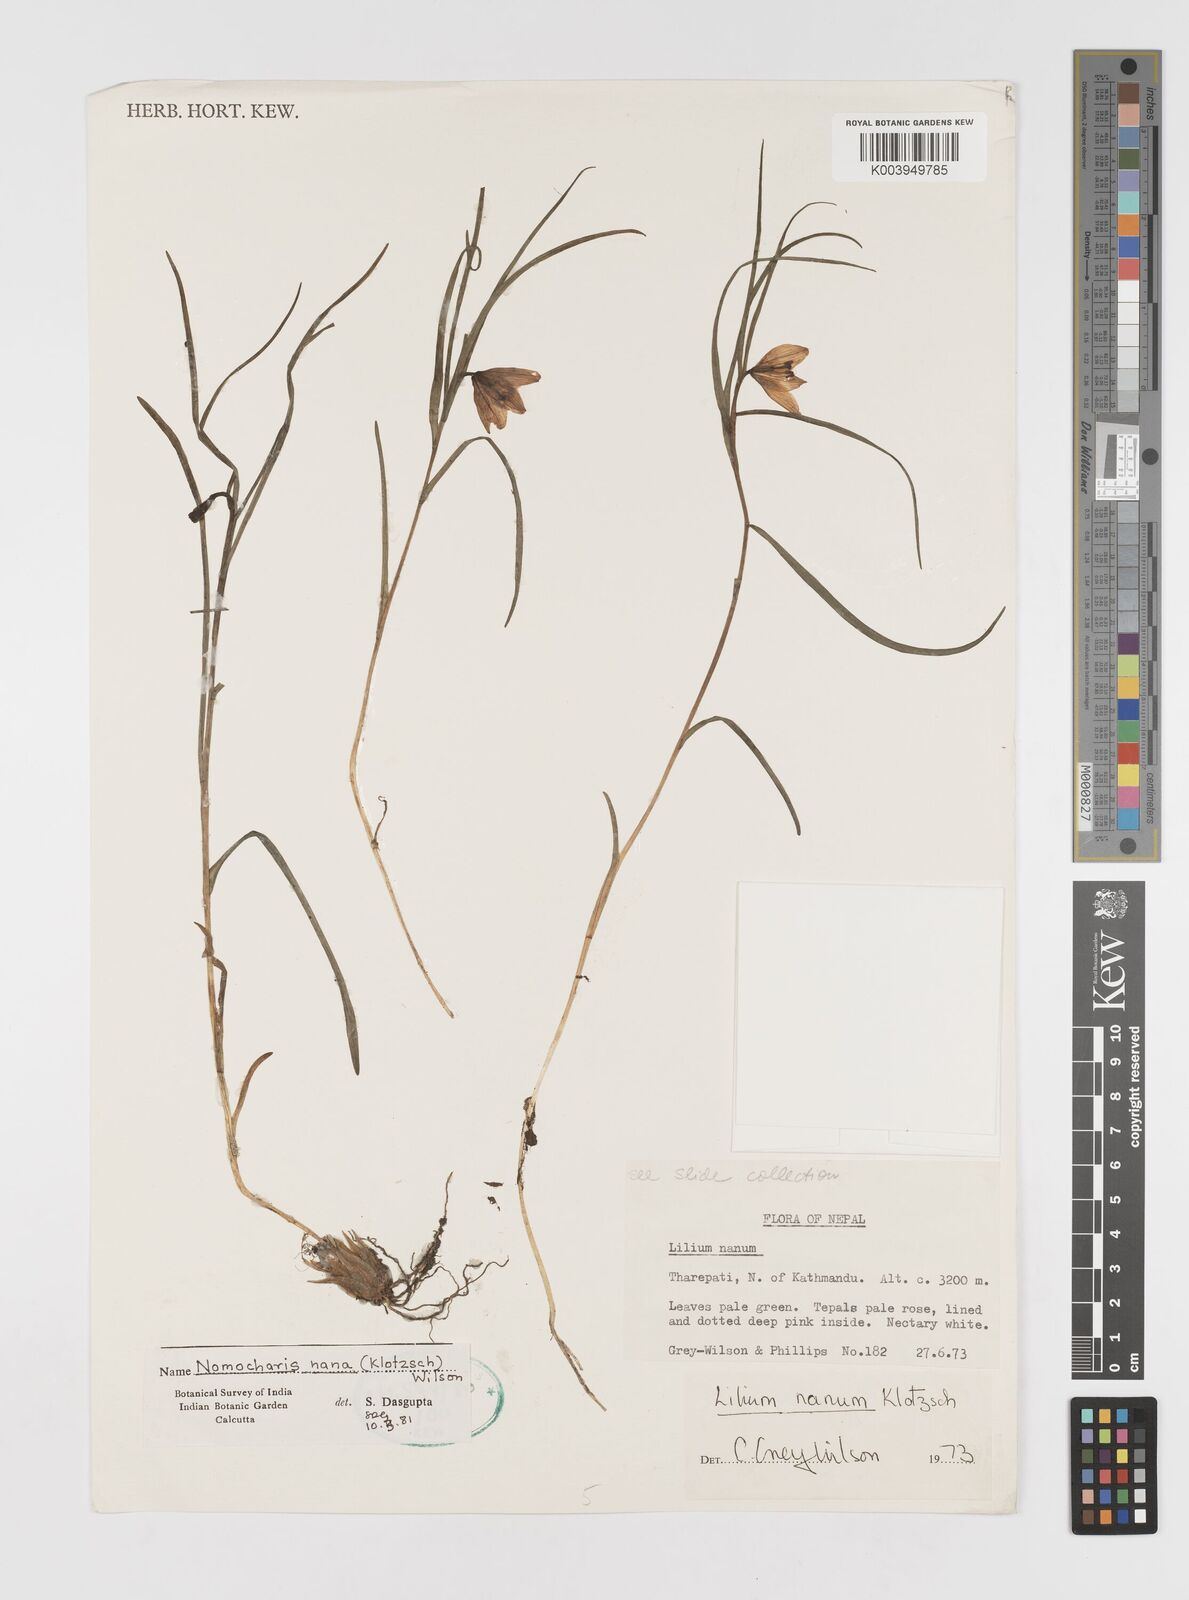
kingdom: Plantae
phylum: Tracheophyta
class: Liliopsida
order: Liliales
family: Liliaceae
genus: Lilium
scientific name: Lilium nanum
